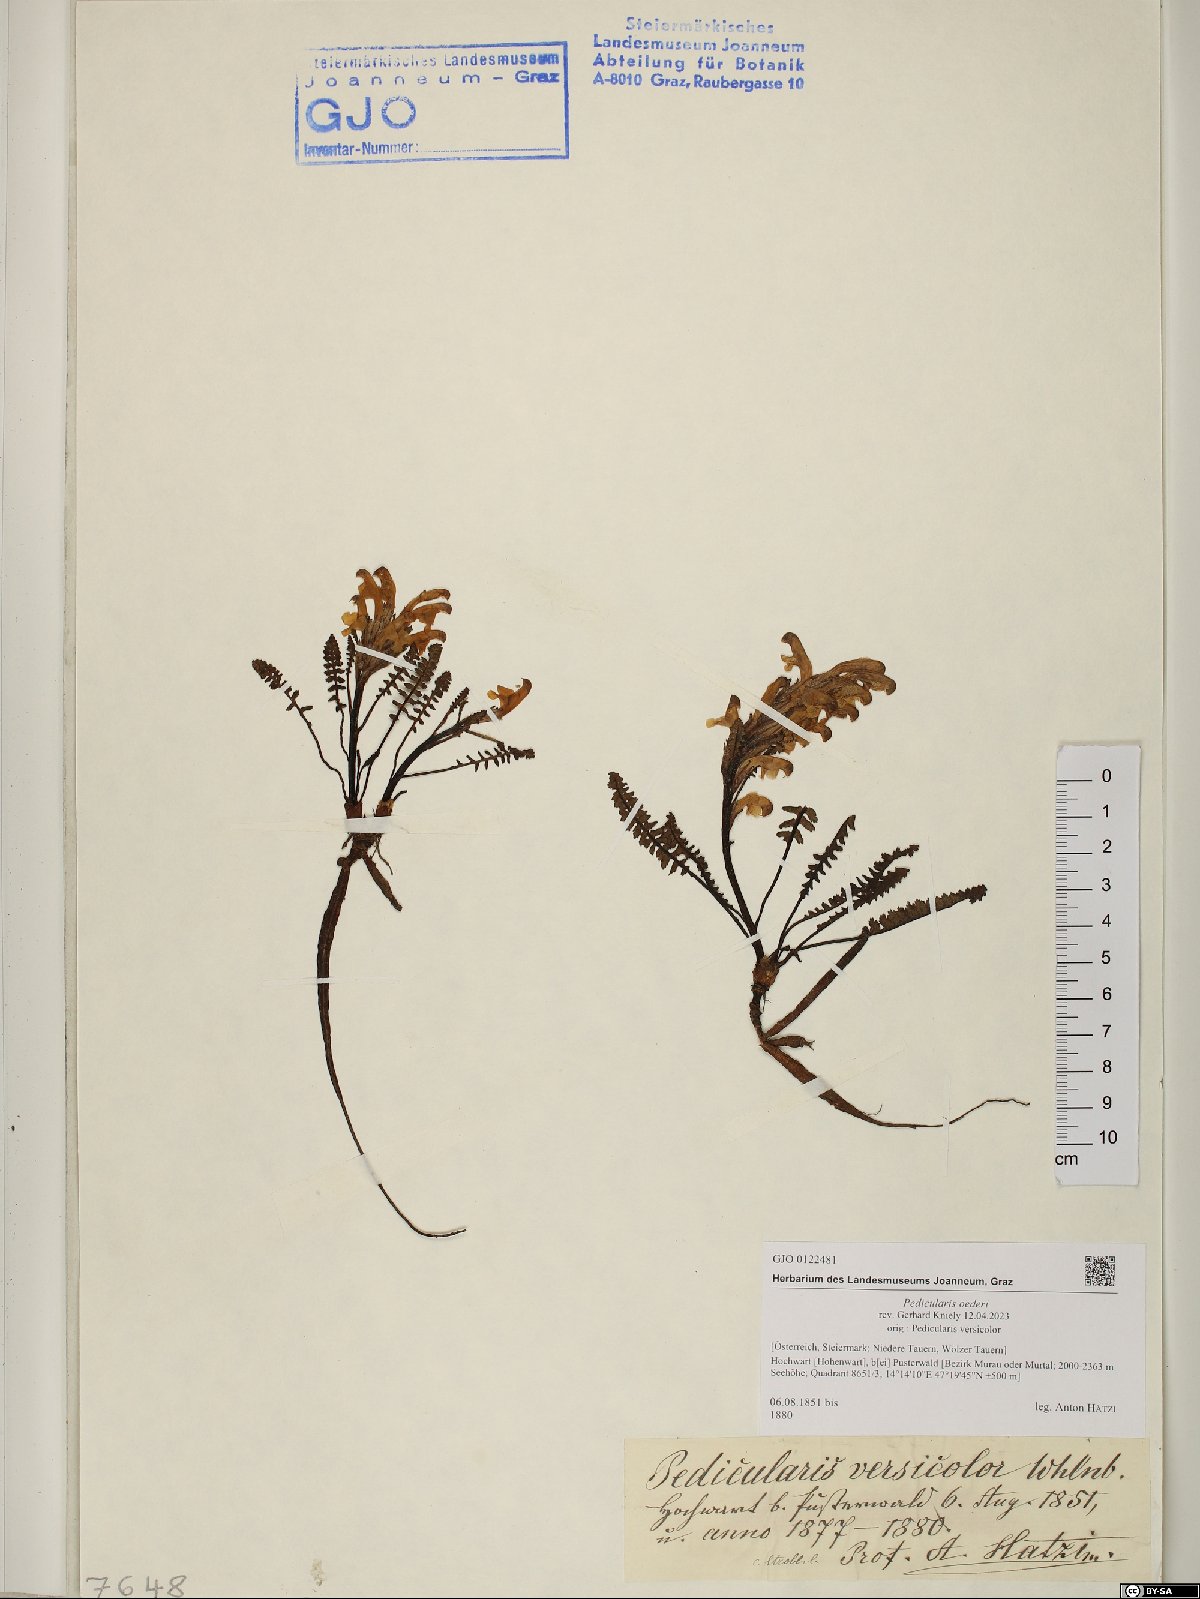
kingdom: Plantae
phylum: Tracheophyta
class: Magnoliopsida
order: Lamiales
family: Orobanchaceae
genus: Pedicularis
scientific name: Pedicularis oederi
